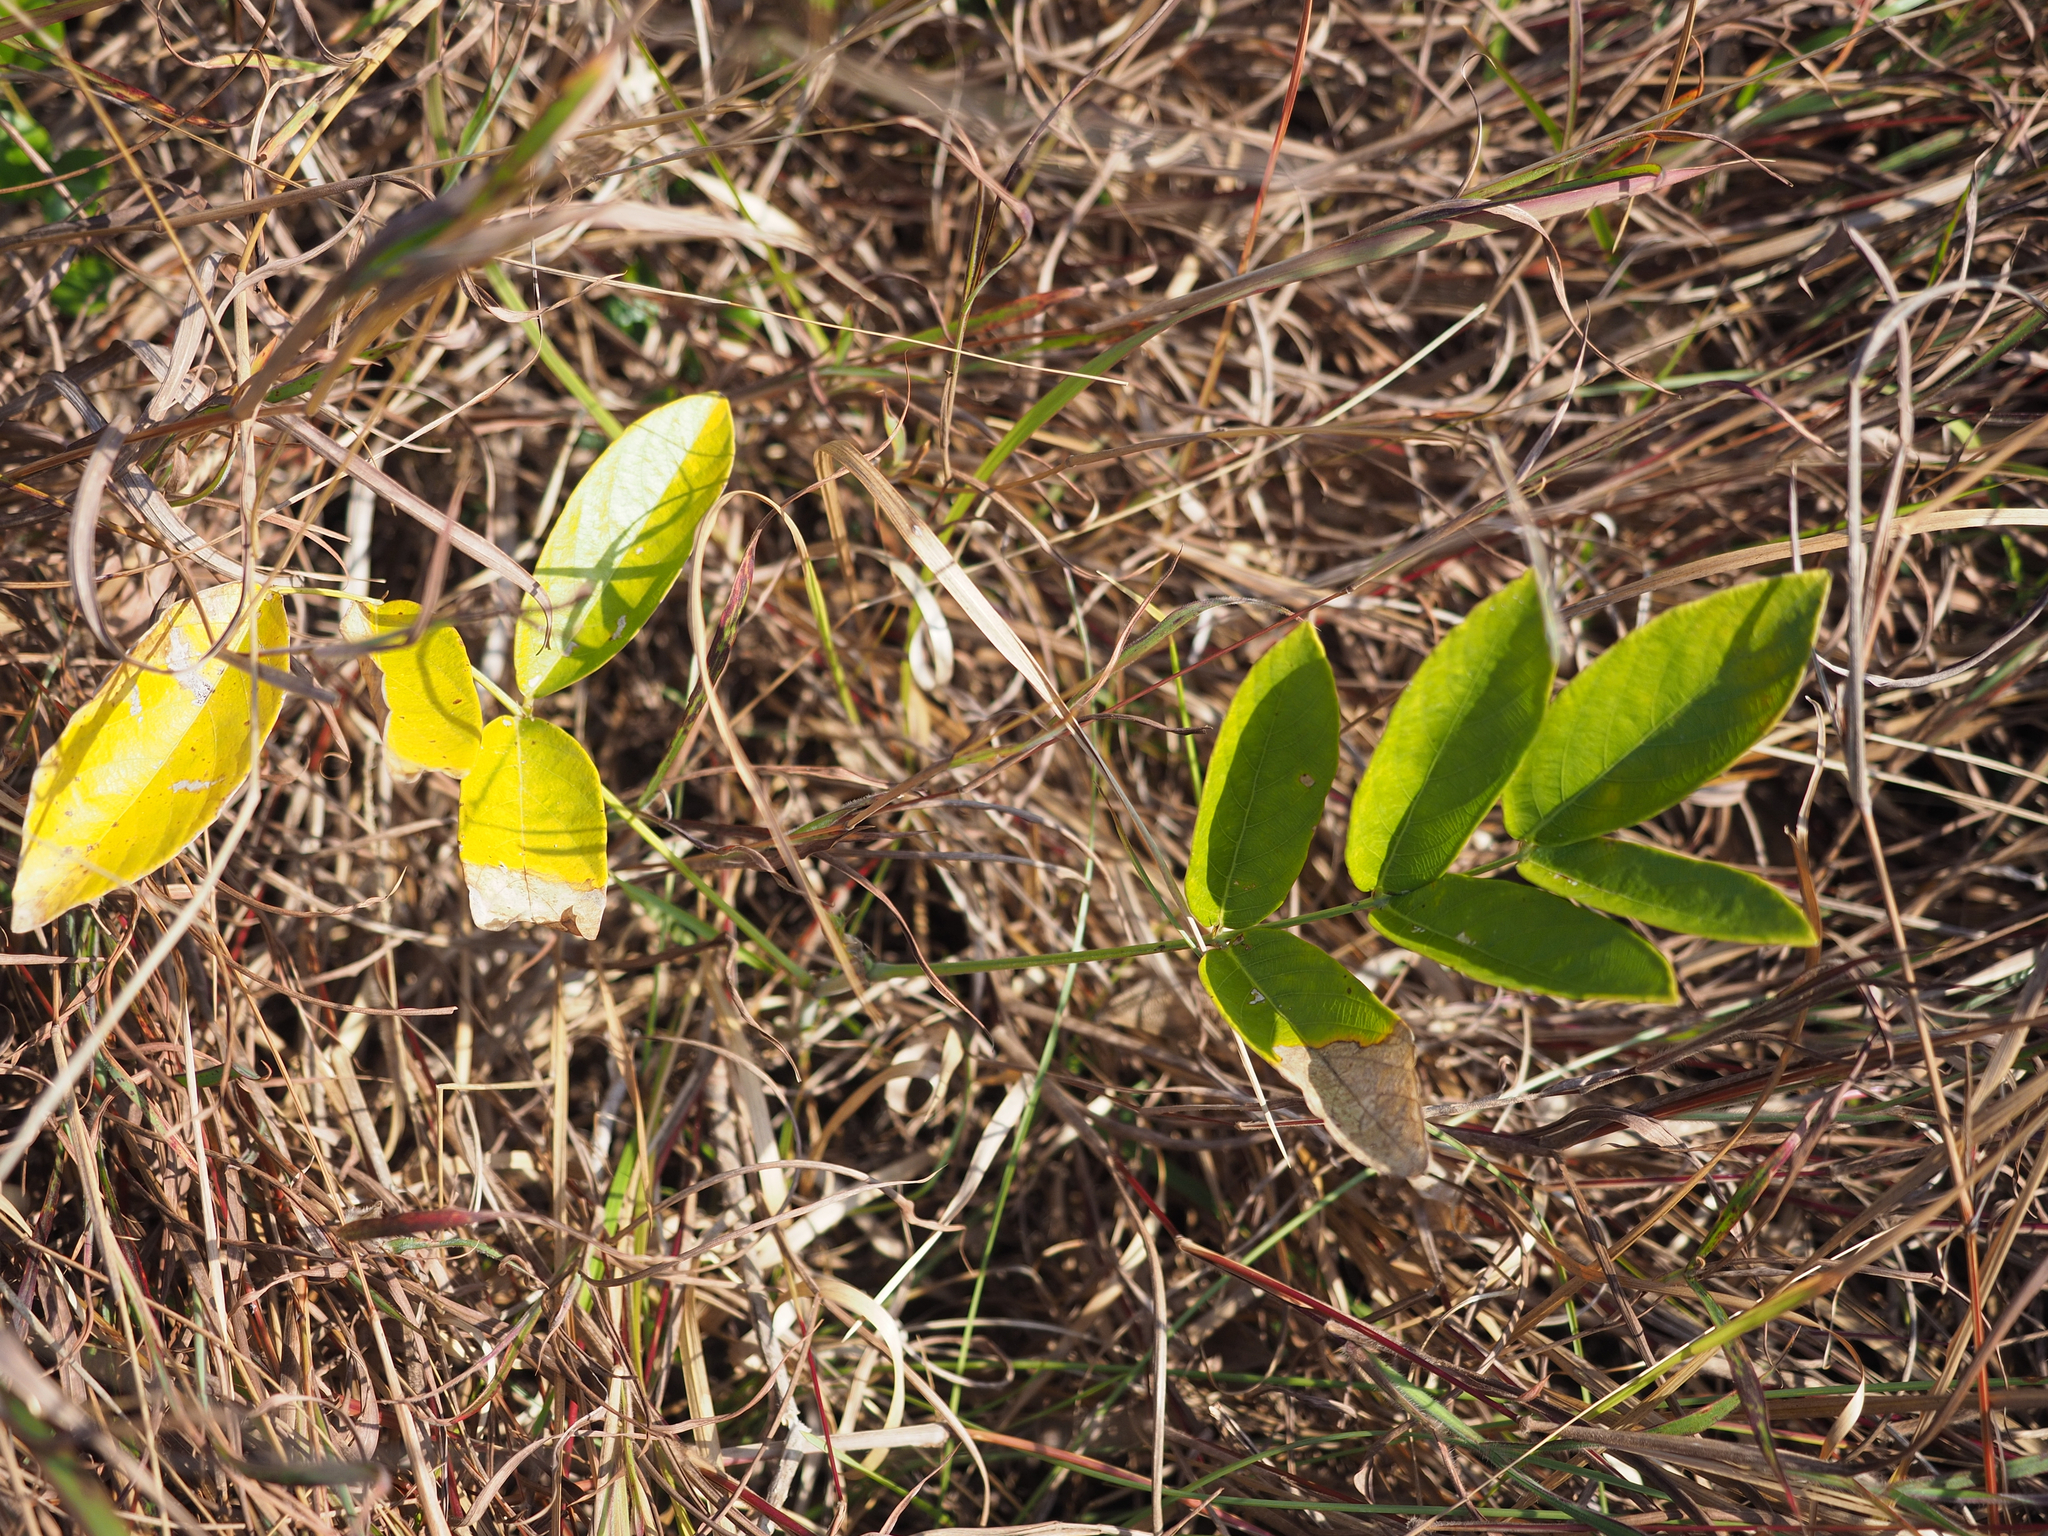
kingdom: Plantae
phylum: Tracheophyta
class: Magnoliopsida
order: Fabales
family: Fabaceae
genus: Uraria
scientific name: Uraria crinita
